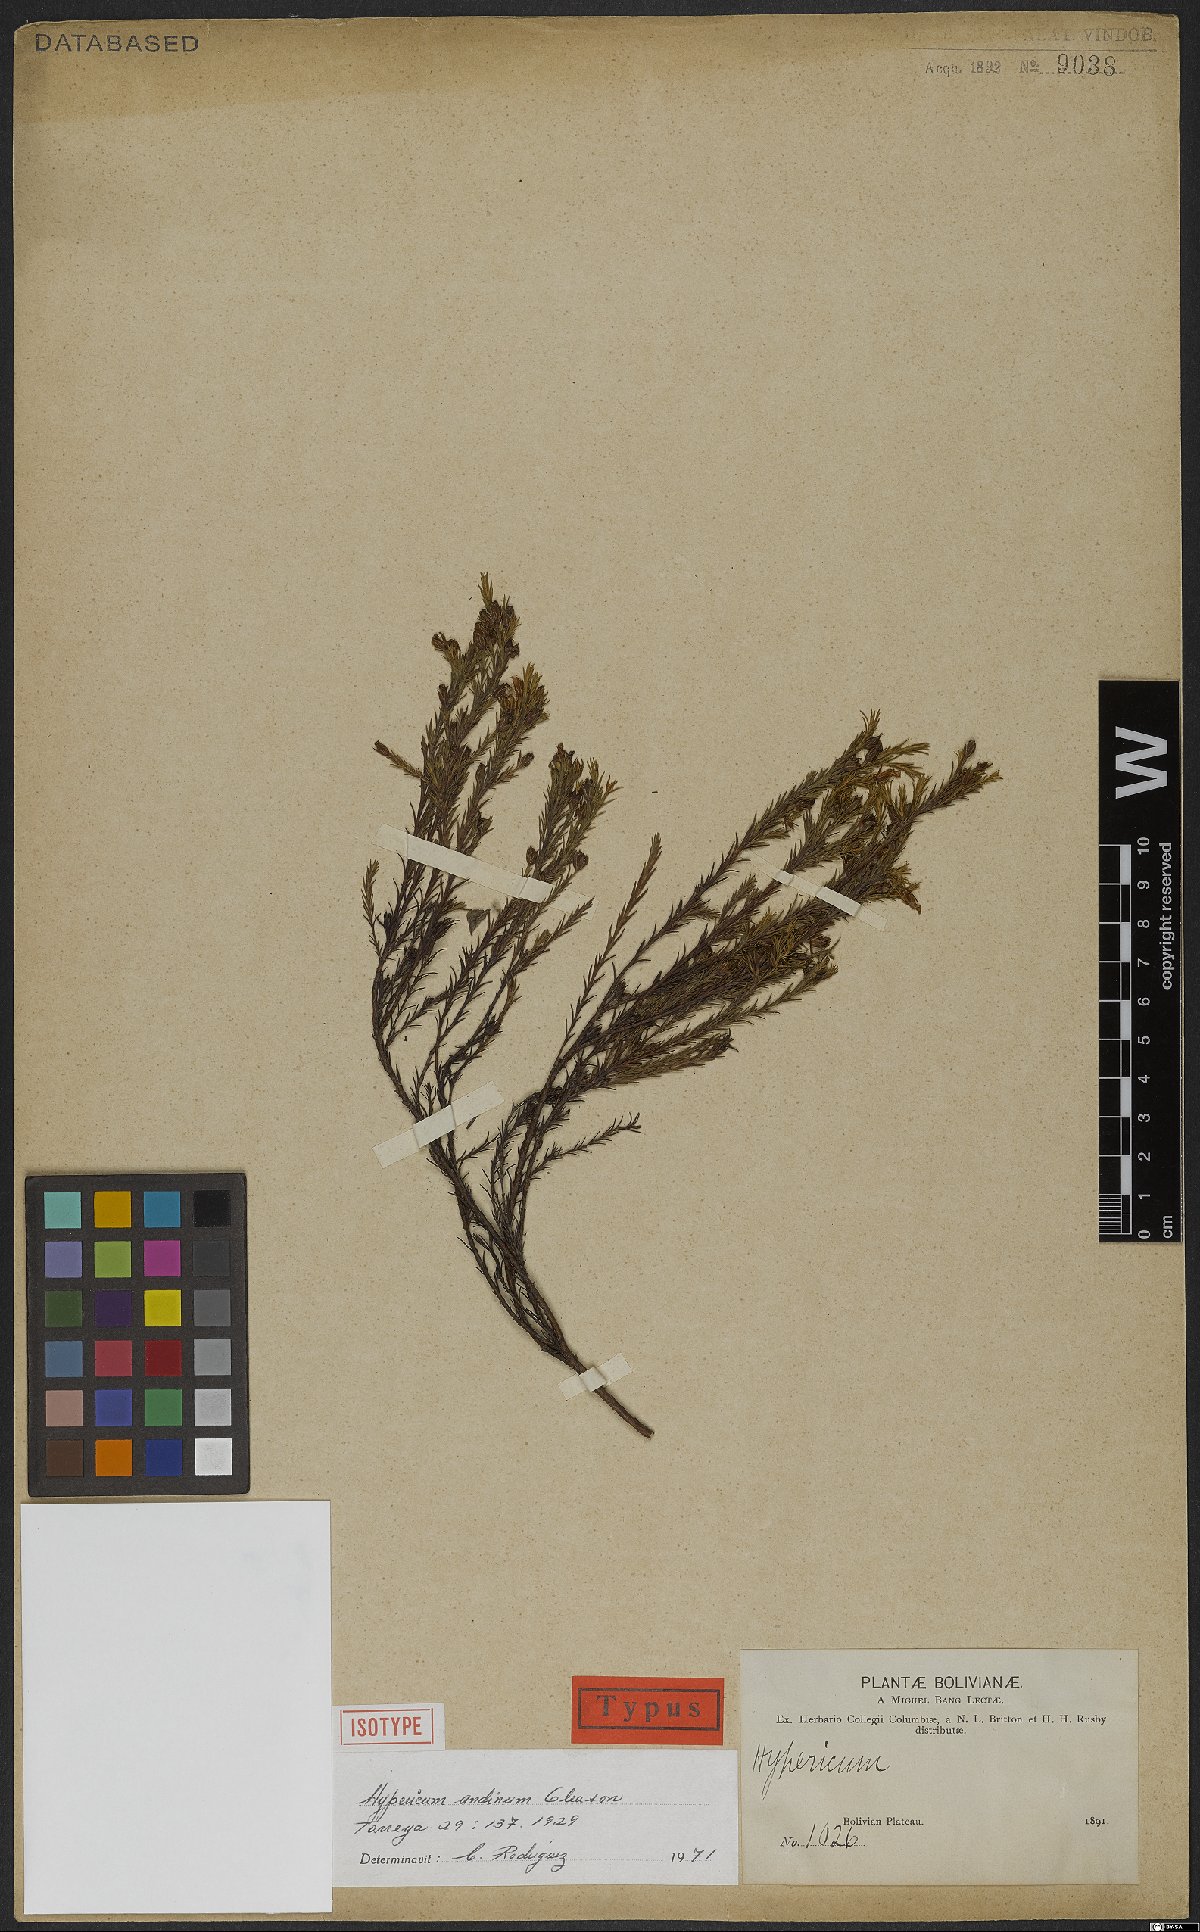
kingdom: Plantae
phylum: Tracheophyta
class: Magnoliopsida
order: Malpighiales
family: Hypericaceae
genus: Hypericum
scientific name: Hypericum andinum
